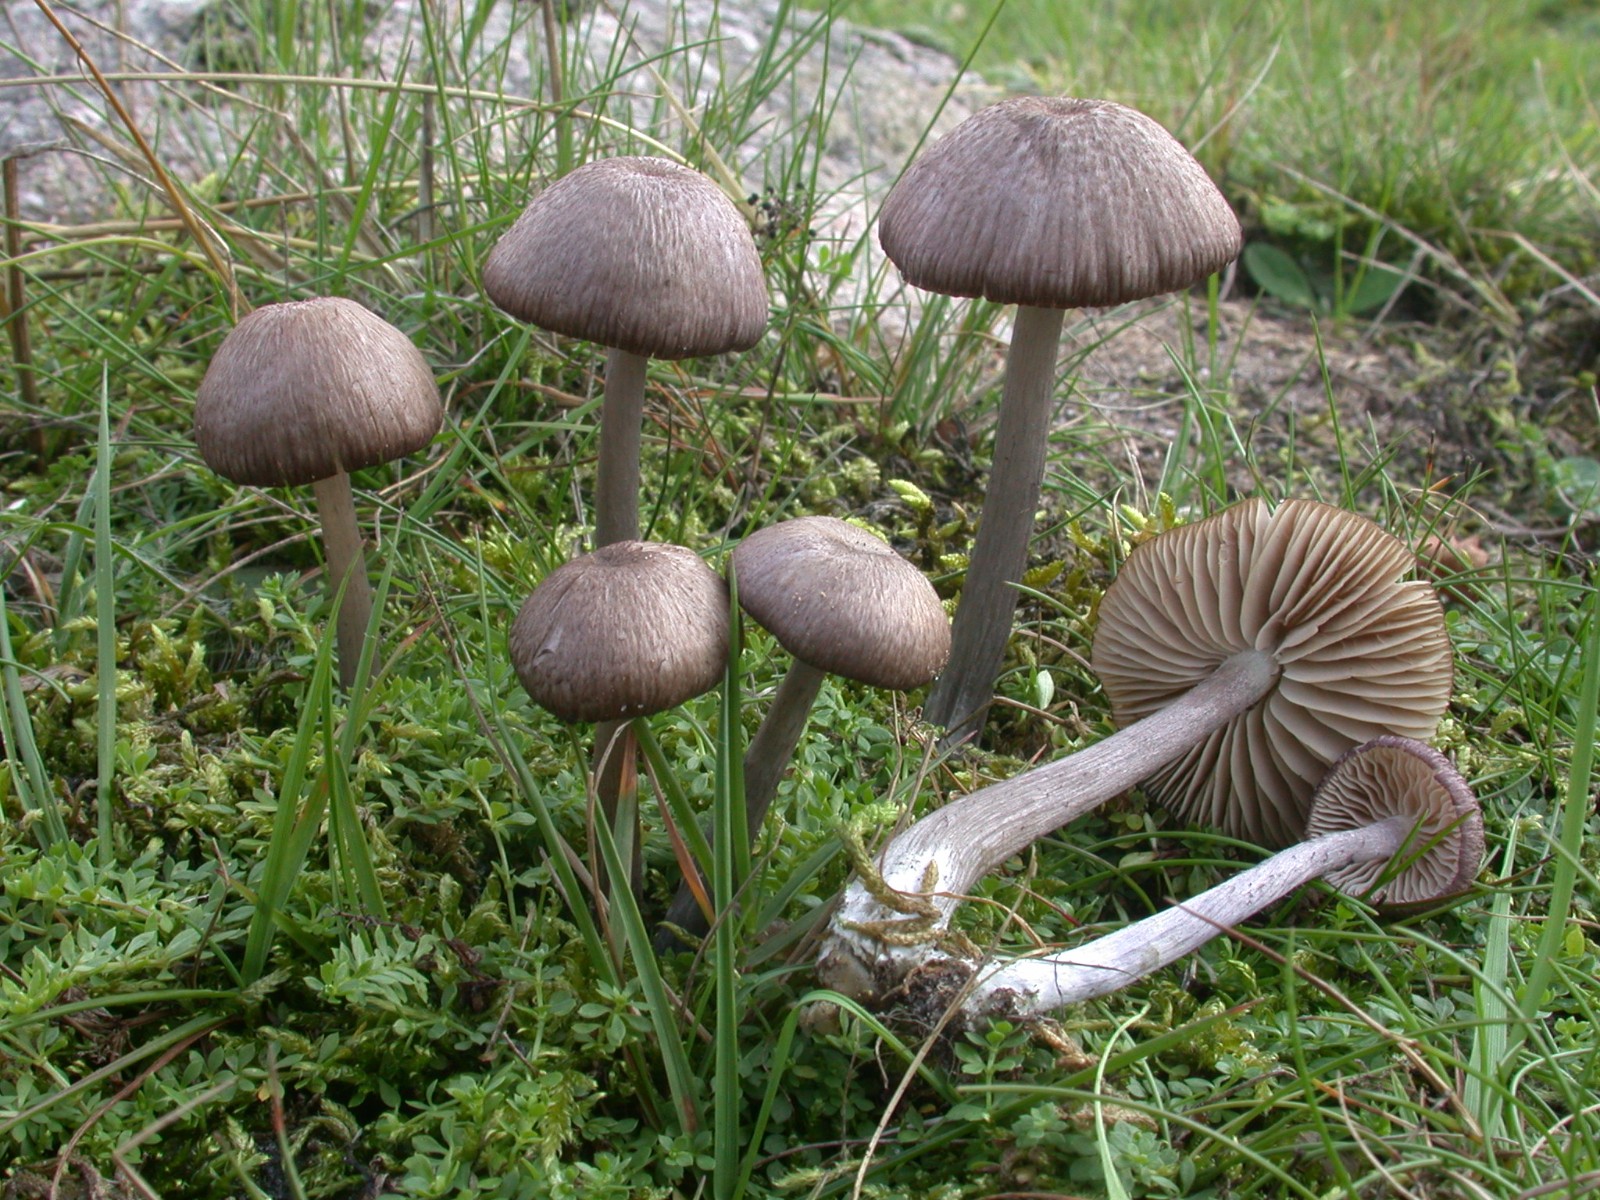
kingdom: Fungi
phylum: Basidiomycota
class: Agaricomycetes
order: Agaricales
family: Entolomataceae
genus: Entoloma
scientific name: Entoloma viiduense
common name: purpurbrun rødblad
